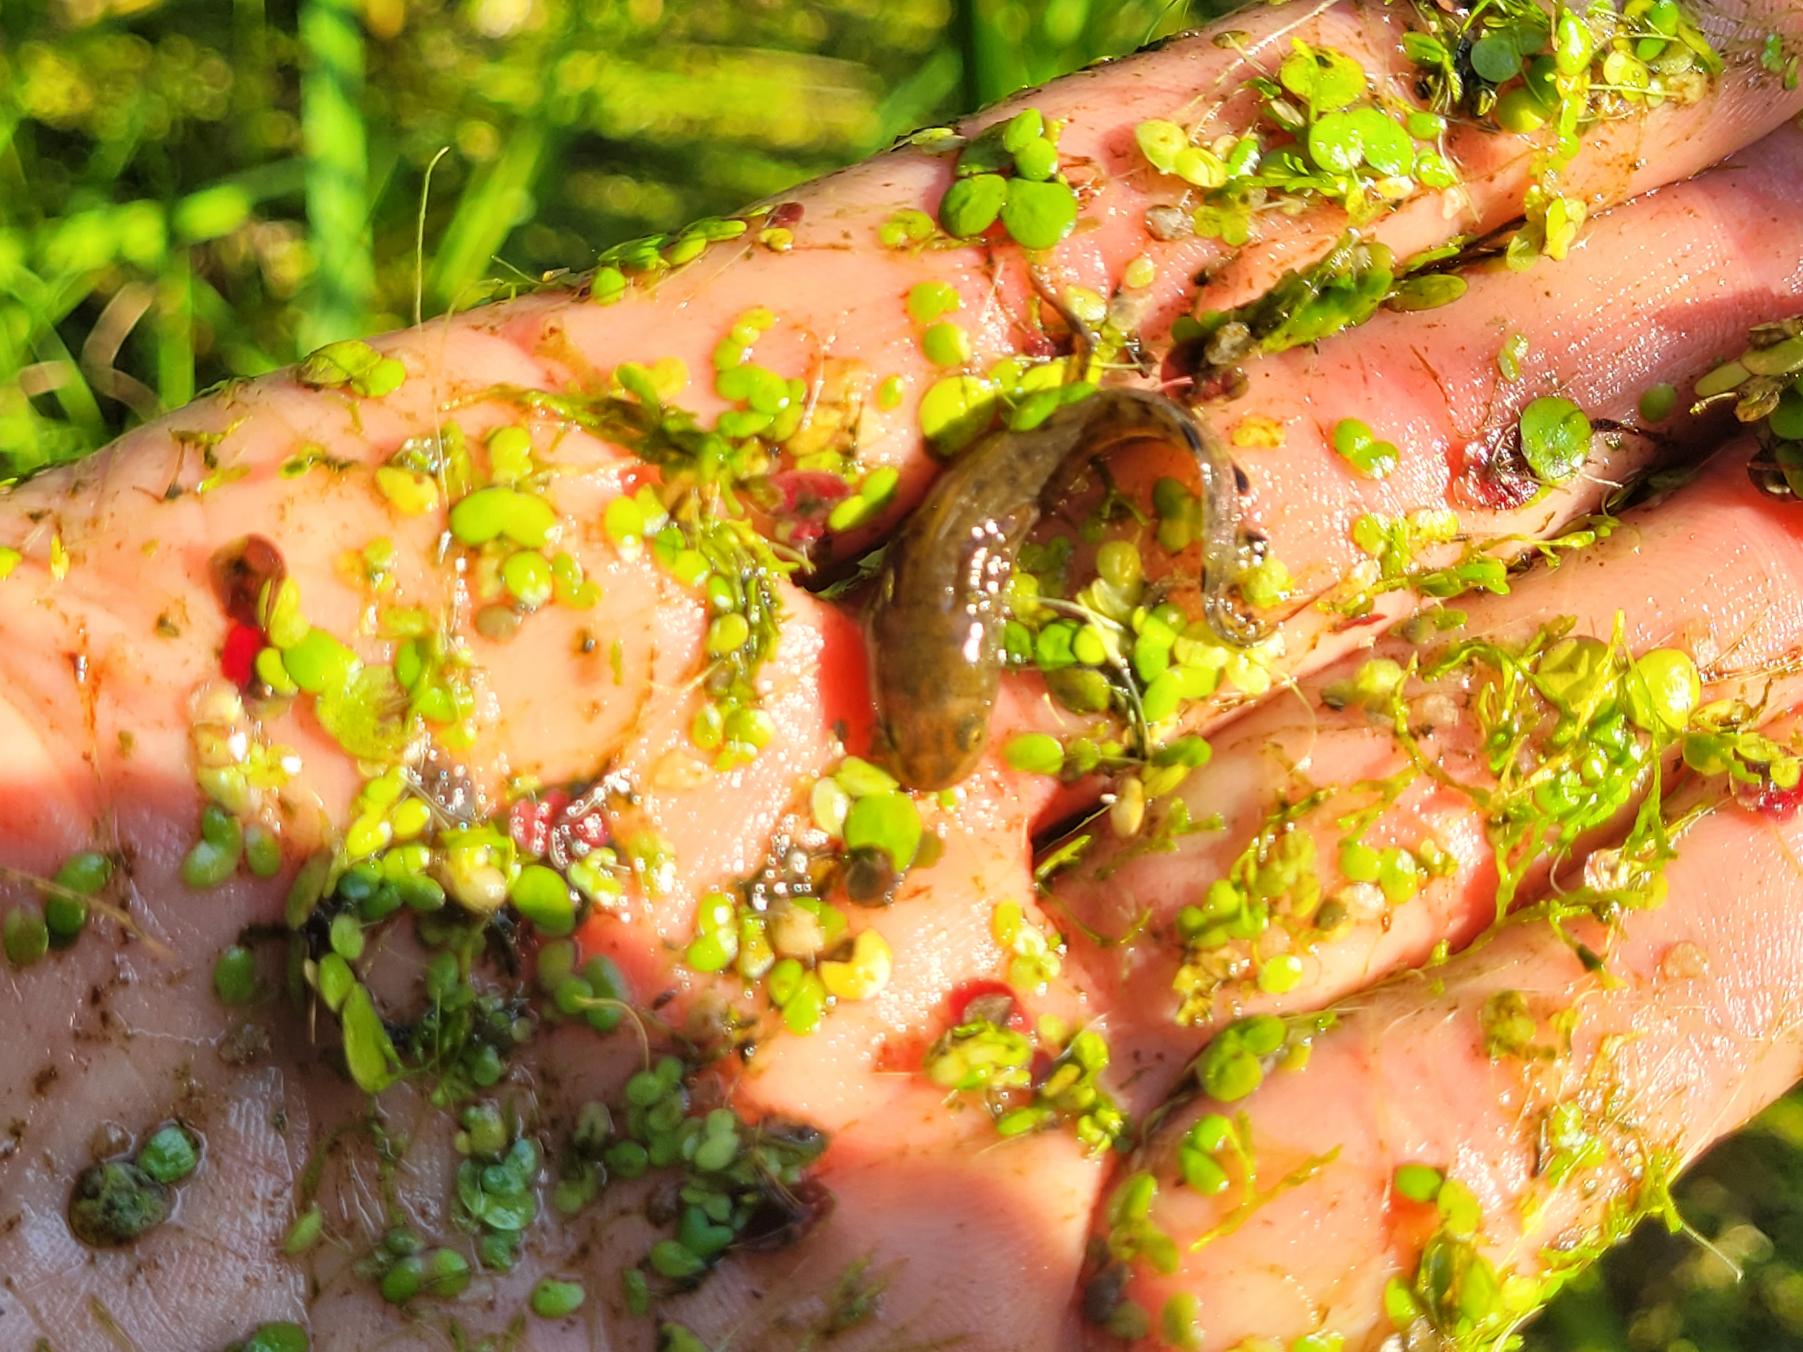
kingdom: Animalia
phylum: Chordata
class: Amphibia
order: Caudata
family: Salamandridae
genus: Triturus
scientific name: Triturus cristatus
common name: Stor vandsalamander
